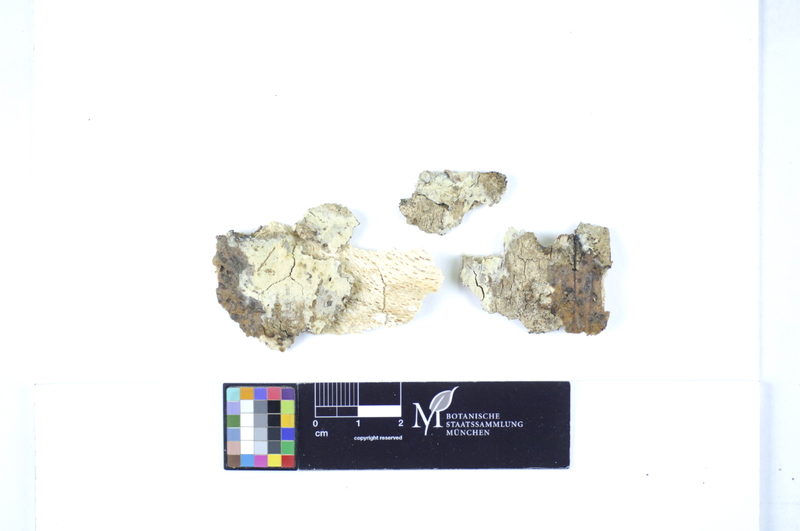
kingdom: Fungi
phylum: Basidiomycota
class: Agaricomycetes
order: Polyporales
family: Hyphodermataceae
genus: Hyphoderma
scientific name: Hyphoderma setigerum
